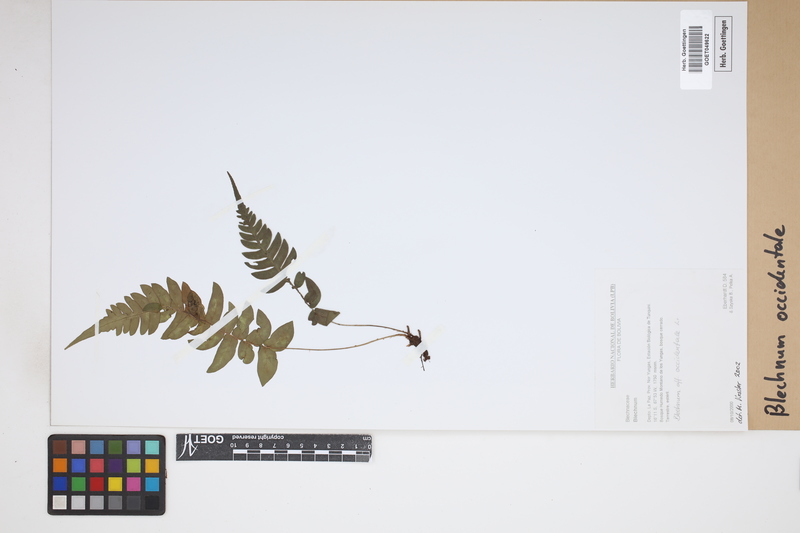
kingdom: Plantae
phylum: Tracheophyta
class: Polypodiopsida
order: Polypodiales
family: Blechnaceae
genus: Blechnum
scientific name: Blechnum occidentale
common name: Hammock fern
